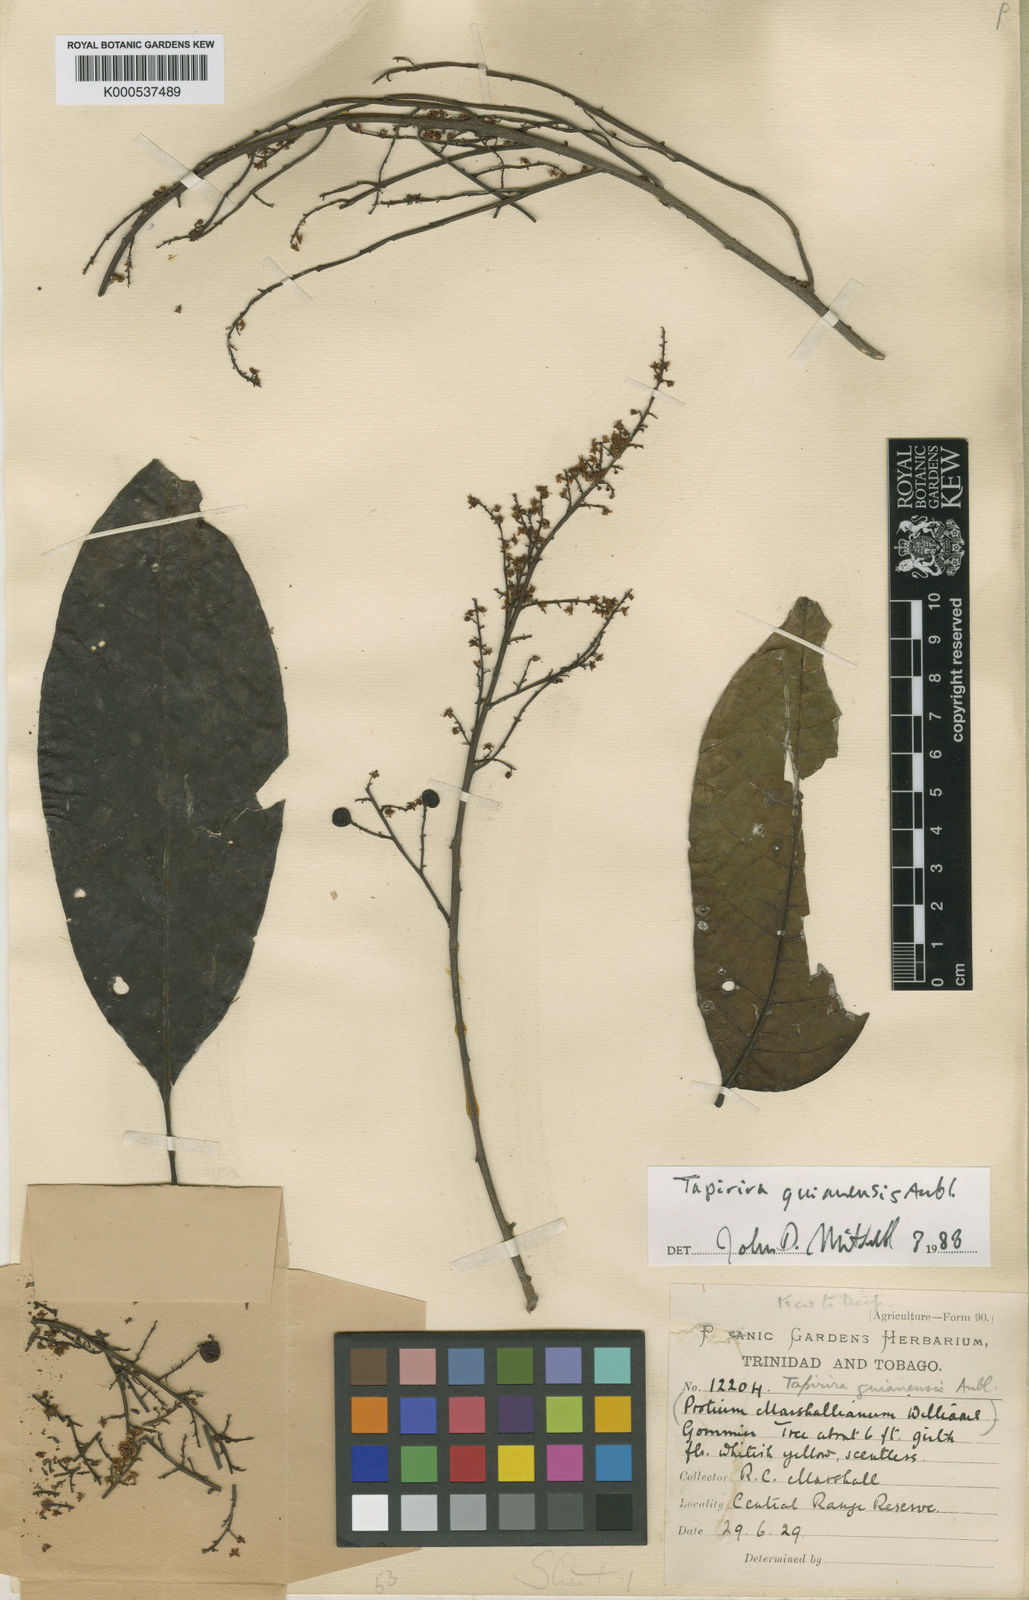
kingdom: Plantae
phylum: Tracheophyta
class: Magnoliopsida
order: Sapindales
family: Anacardiaceae
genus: Tapirira
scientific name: Tapirira guianensis
